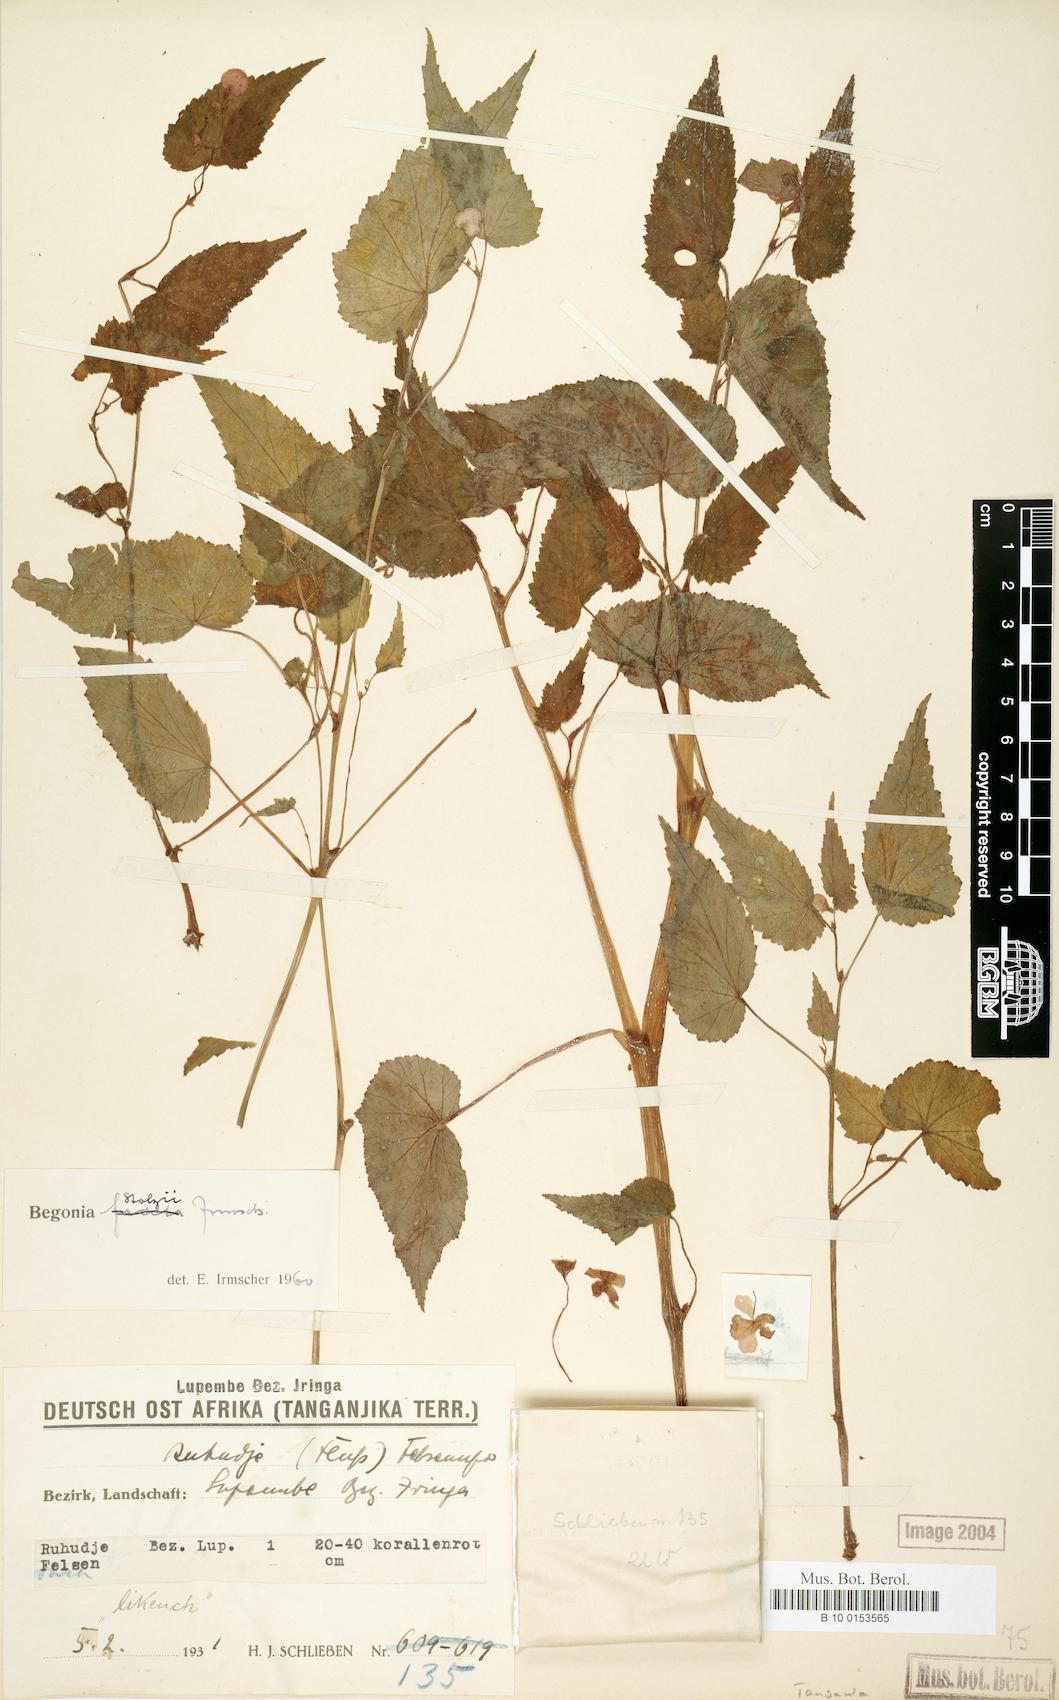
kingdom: Plantae
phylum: Tracheophyta
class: Magnoliopsida
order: Cucurbitales
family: Begoniaceae
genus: Begonia
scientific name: Begonia stolzii
